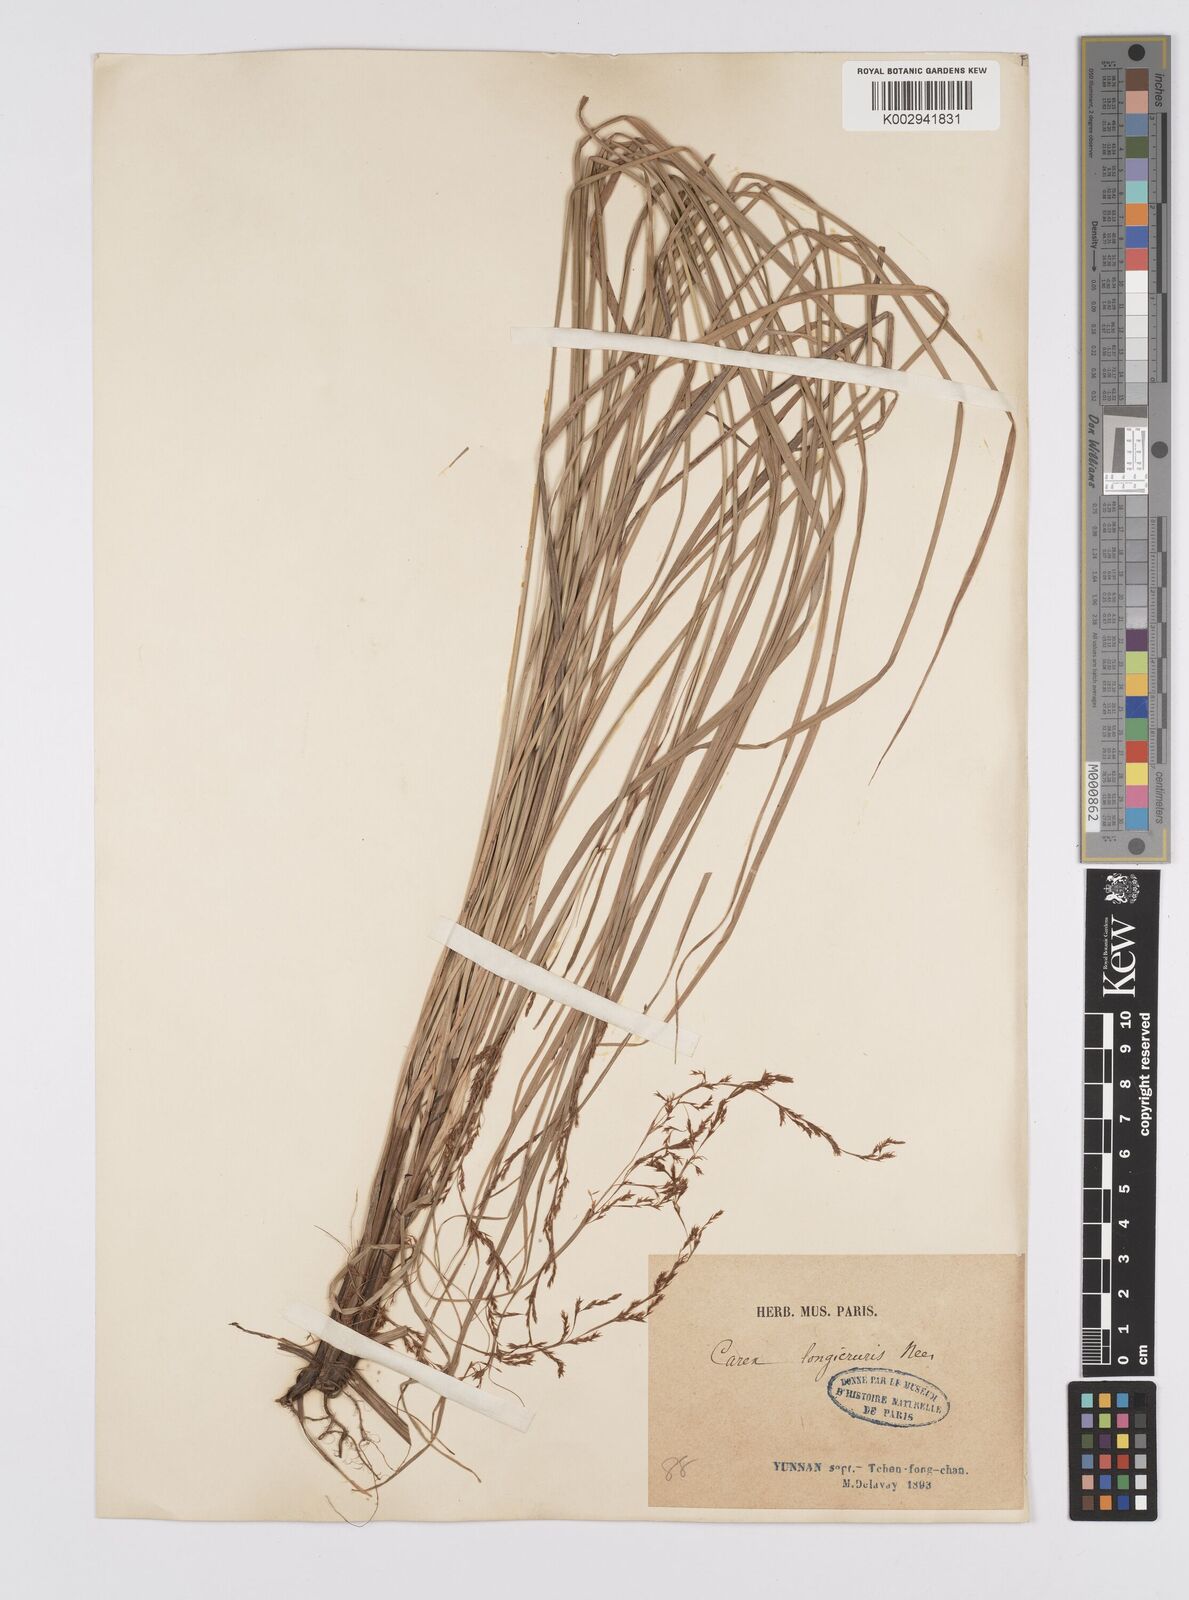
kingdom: Plantae
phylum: Tracheophyta
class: Liliopsida
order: Poales
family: Cyperaceae
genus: Carex
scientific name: Carex longicruris
